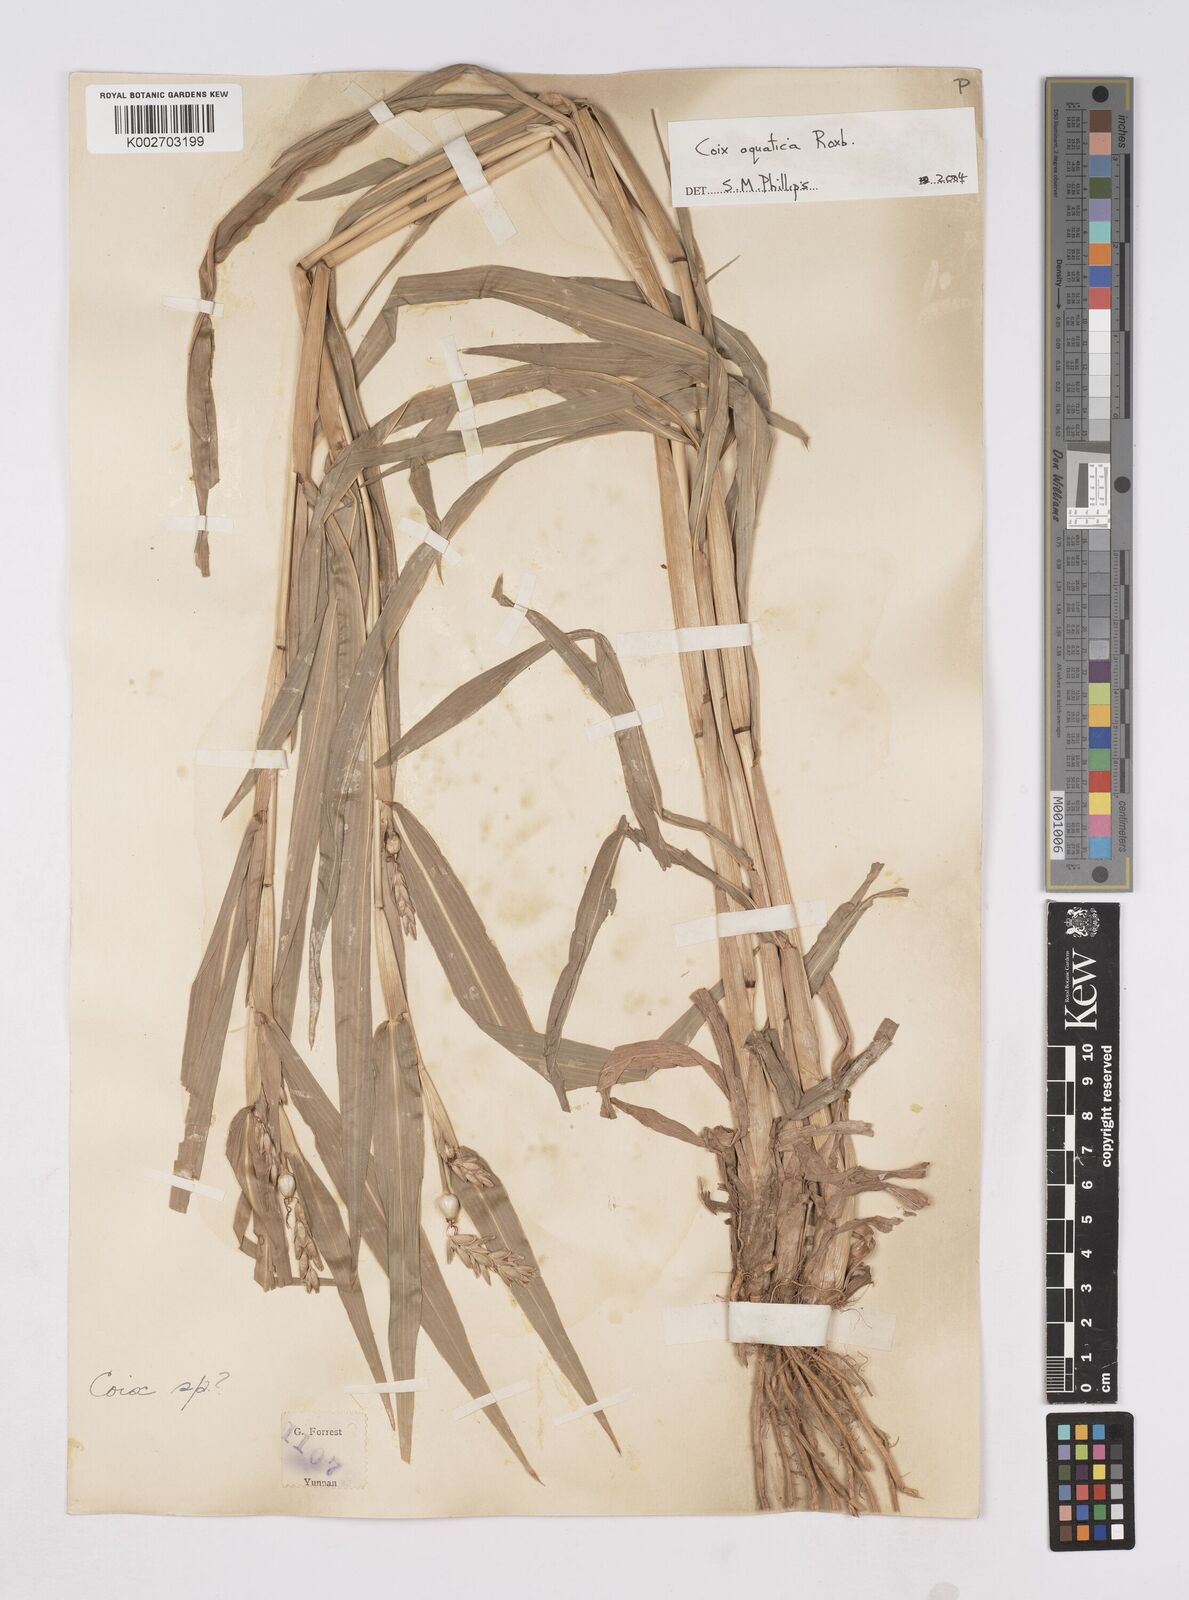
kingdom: Plantae
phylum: Tracheophyta
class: Liliopsida
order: Poales
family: Poaceae
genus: Coix
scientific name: Coix aquatica
